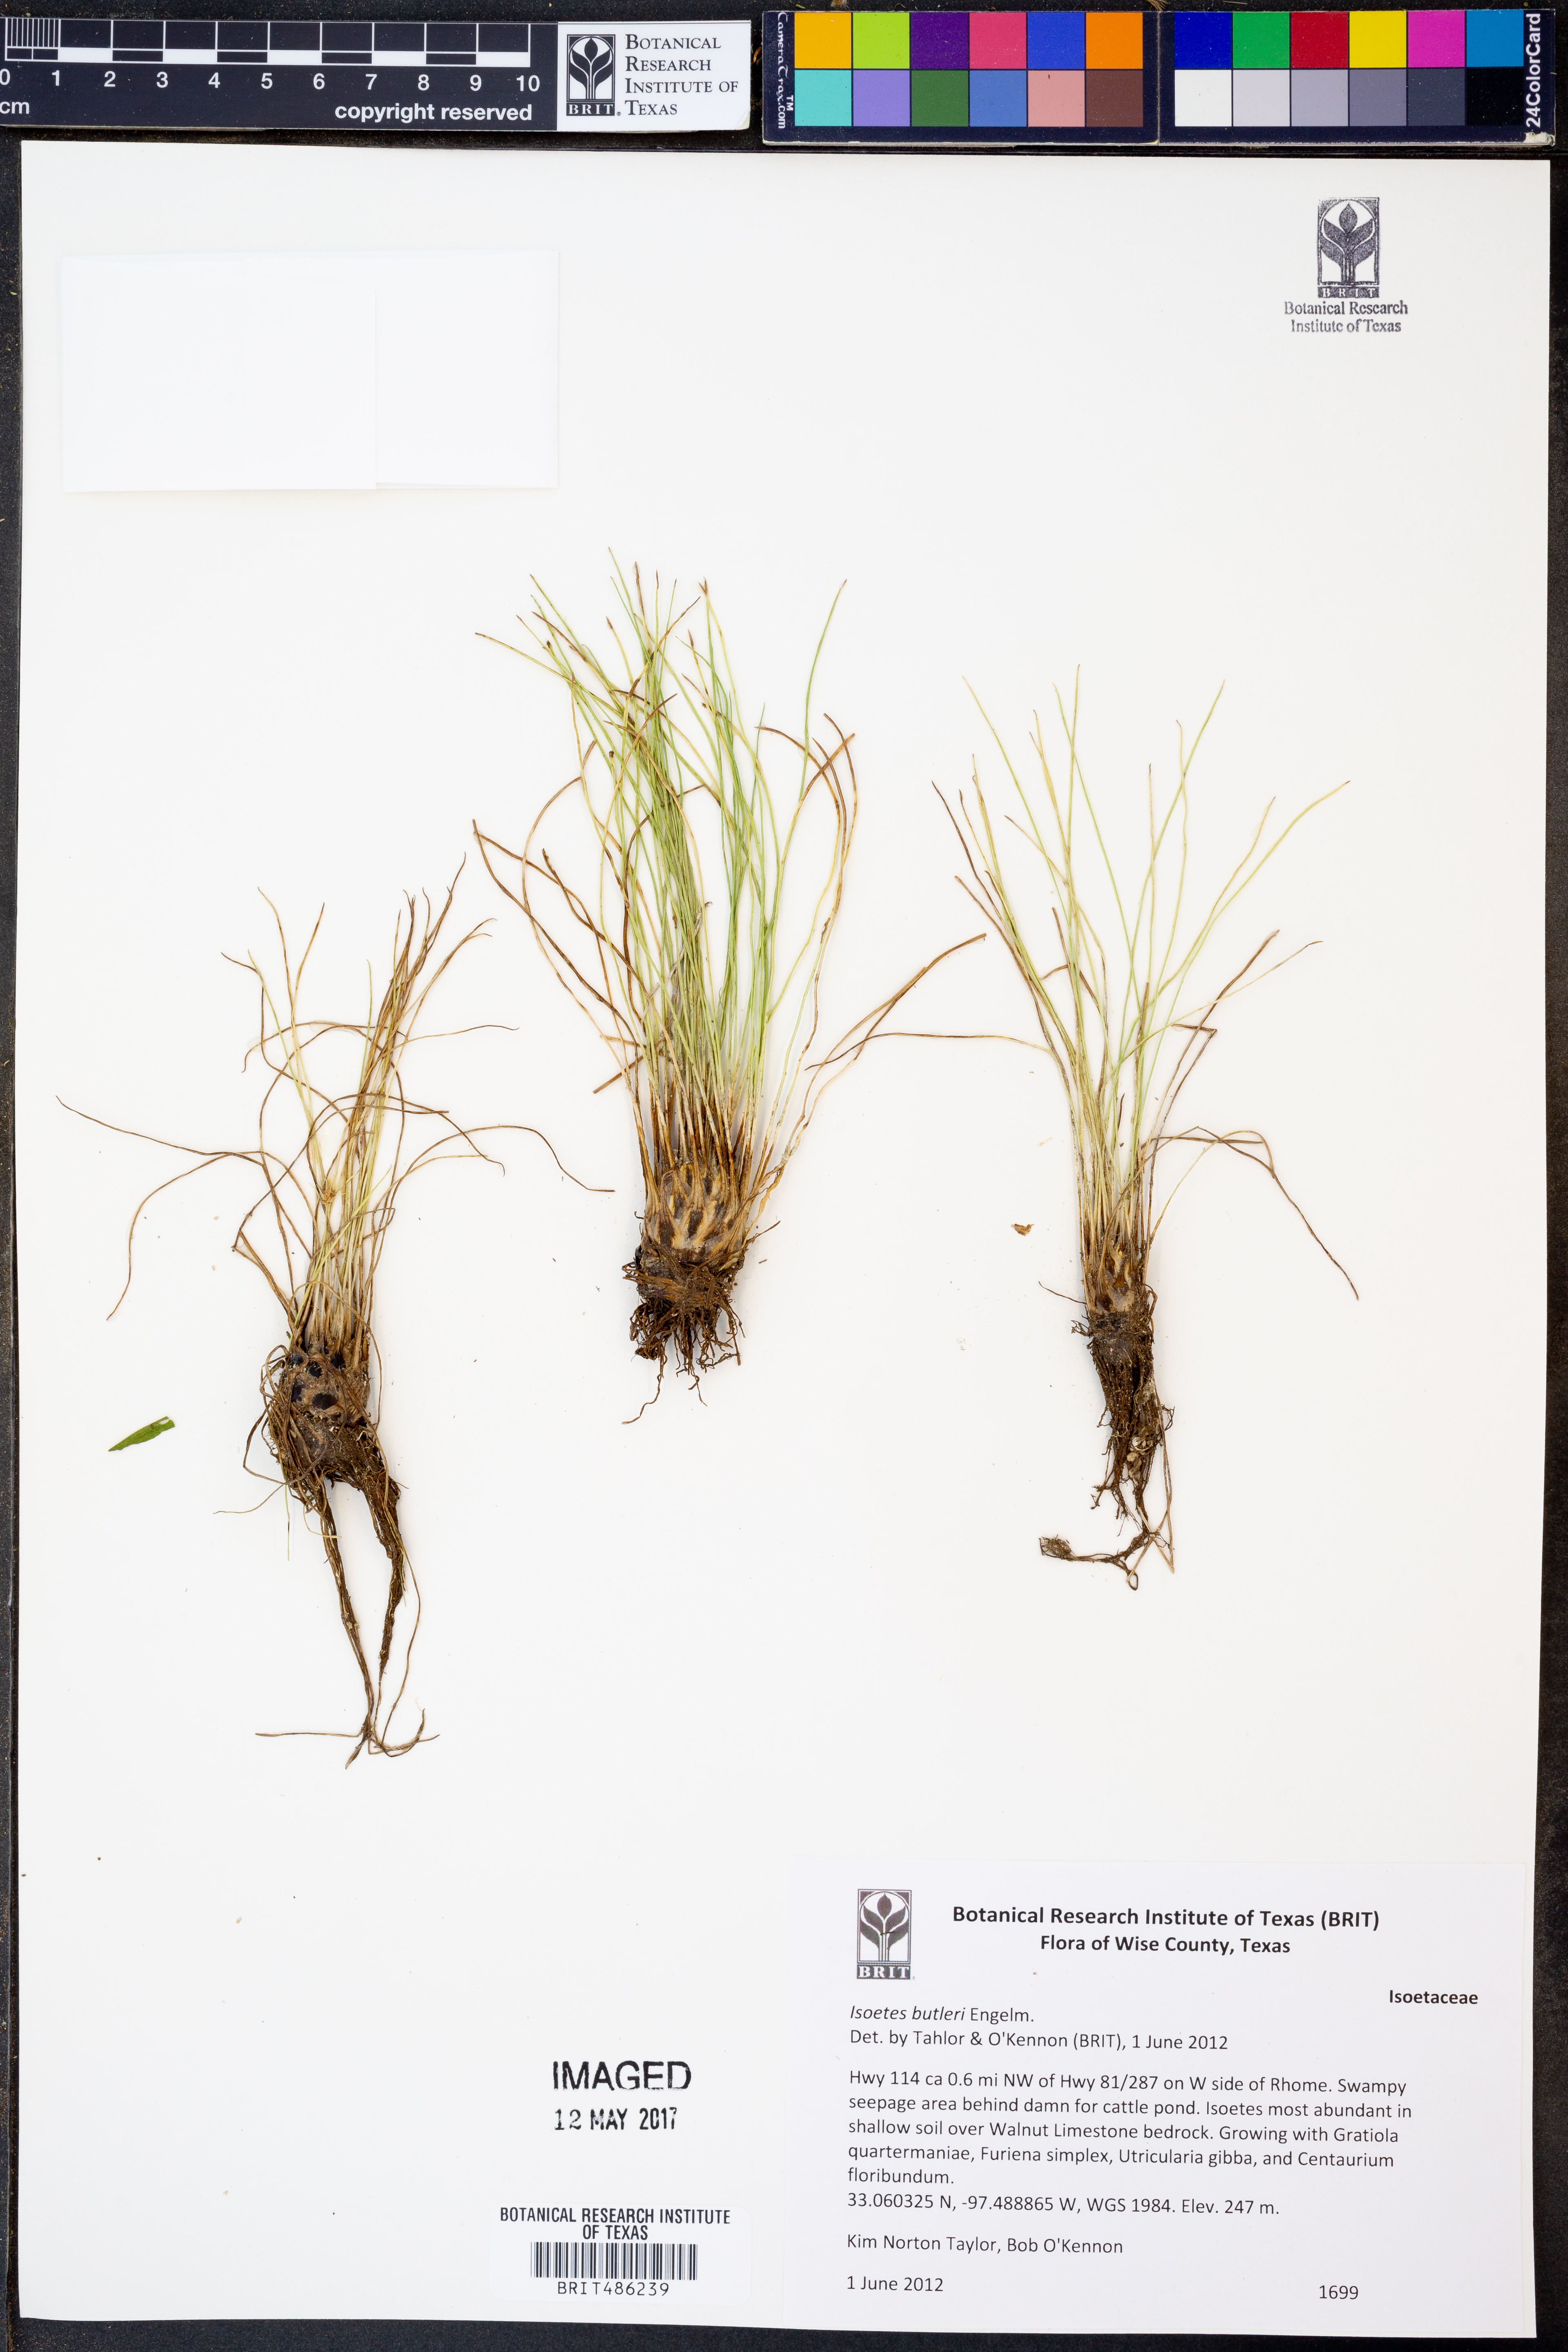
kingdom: Plantae
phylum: Tracheophyta
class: Lycopodiopsida
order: Isoetales
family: Isoetaceae
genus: Isoetes
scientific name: Isoetes butleri
